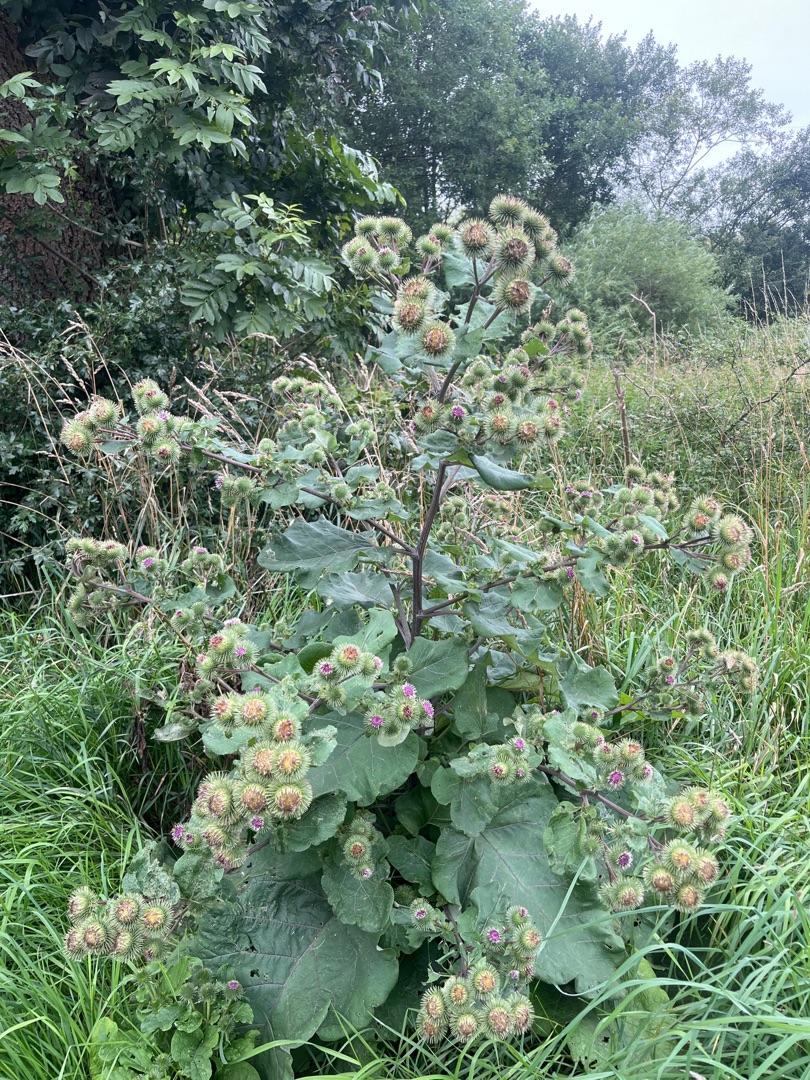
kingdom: Plantae
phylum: Tracheophyta
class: Magnoliopsida
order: Asterales
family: Asteraceae
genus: Arctium
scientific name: Arctium lappa
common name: Glat burre
